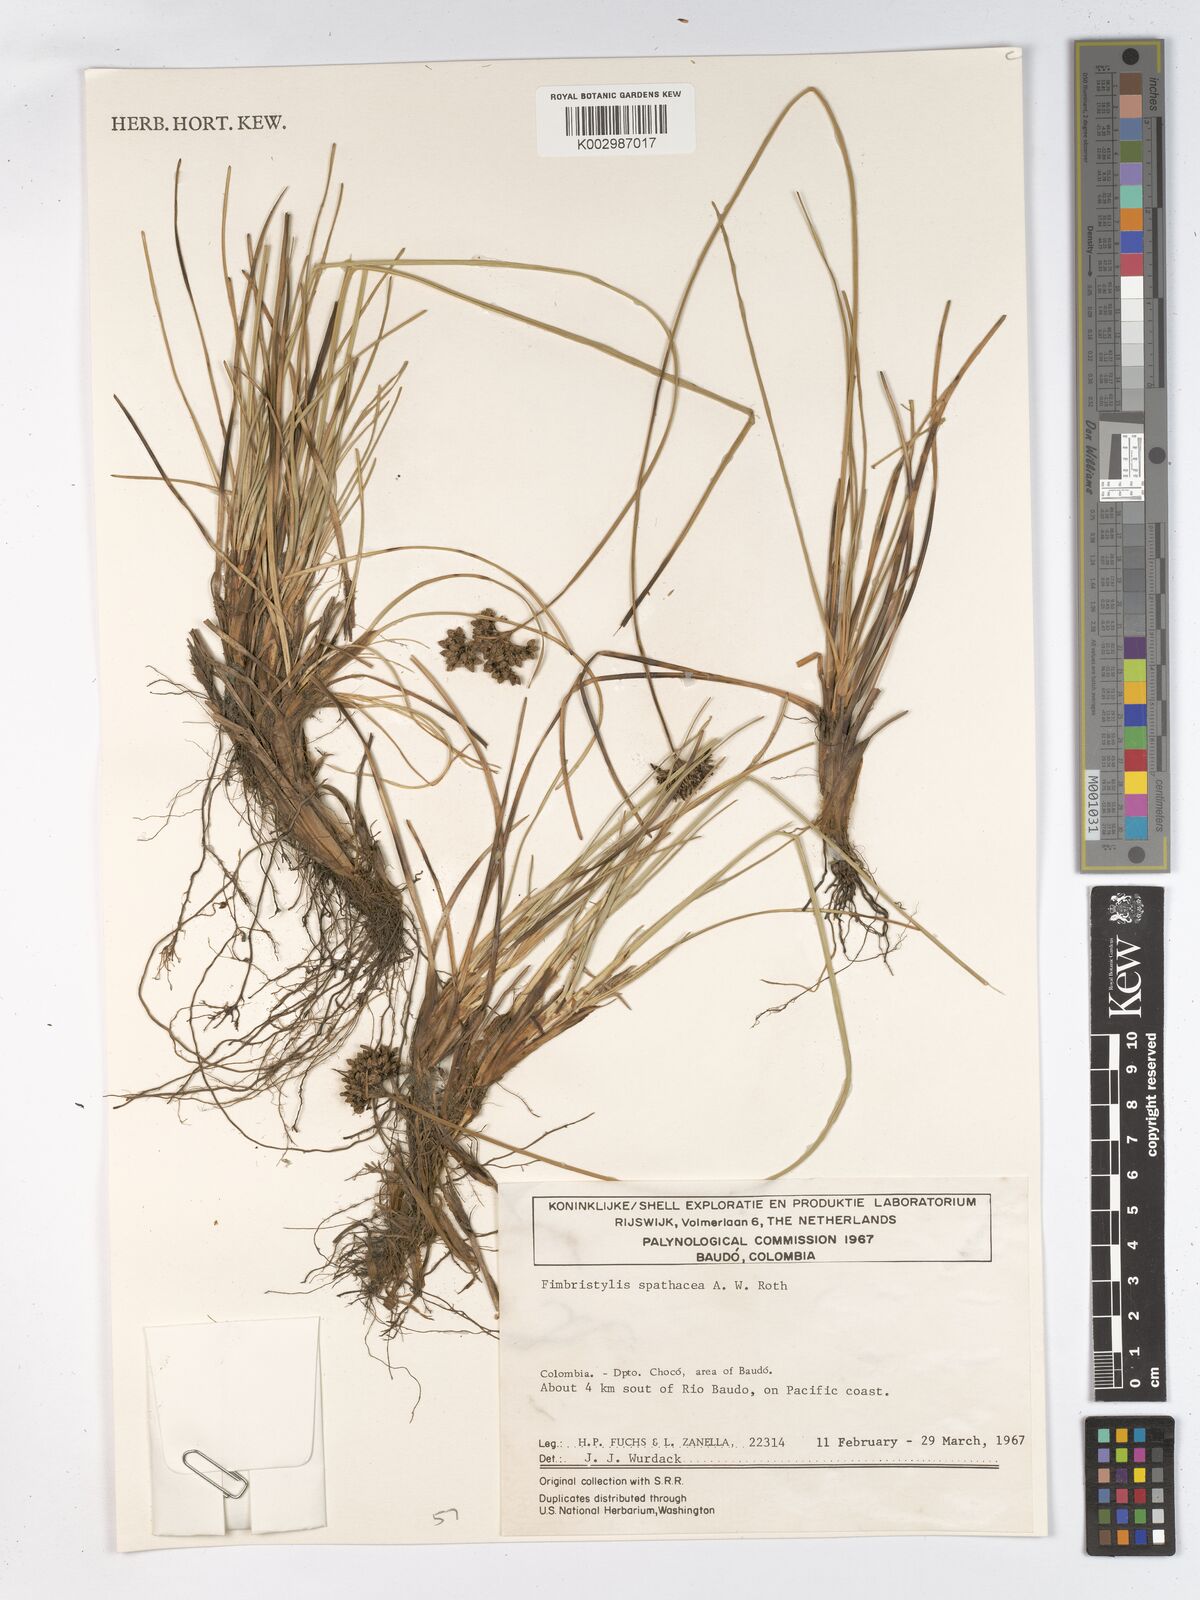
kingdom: Plantae
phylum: Tracheophyta
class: Liliopsida
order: Poales
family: Cyperaceae
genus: Fimbristylis
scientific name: Fimbristylis cymosa
